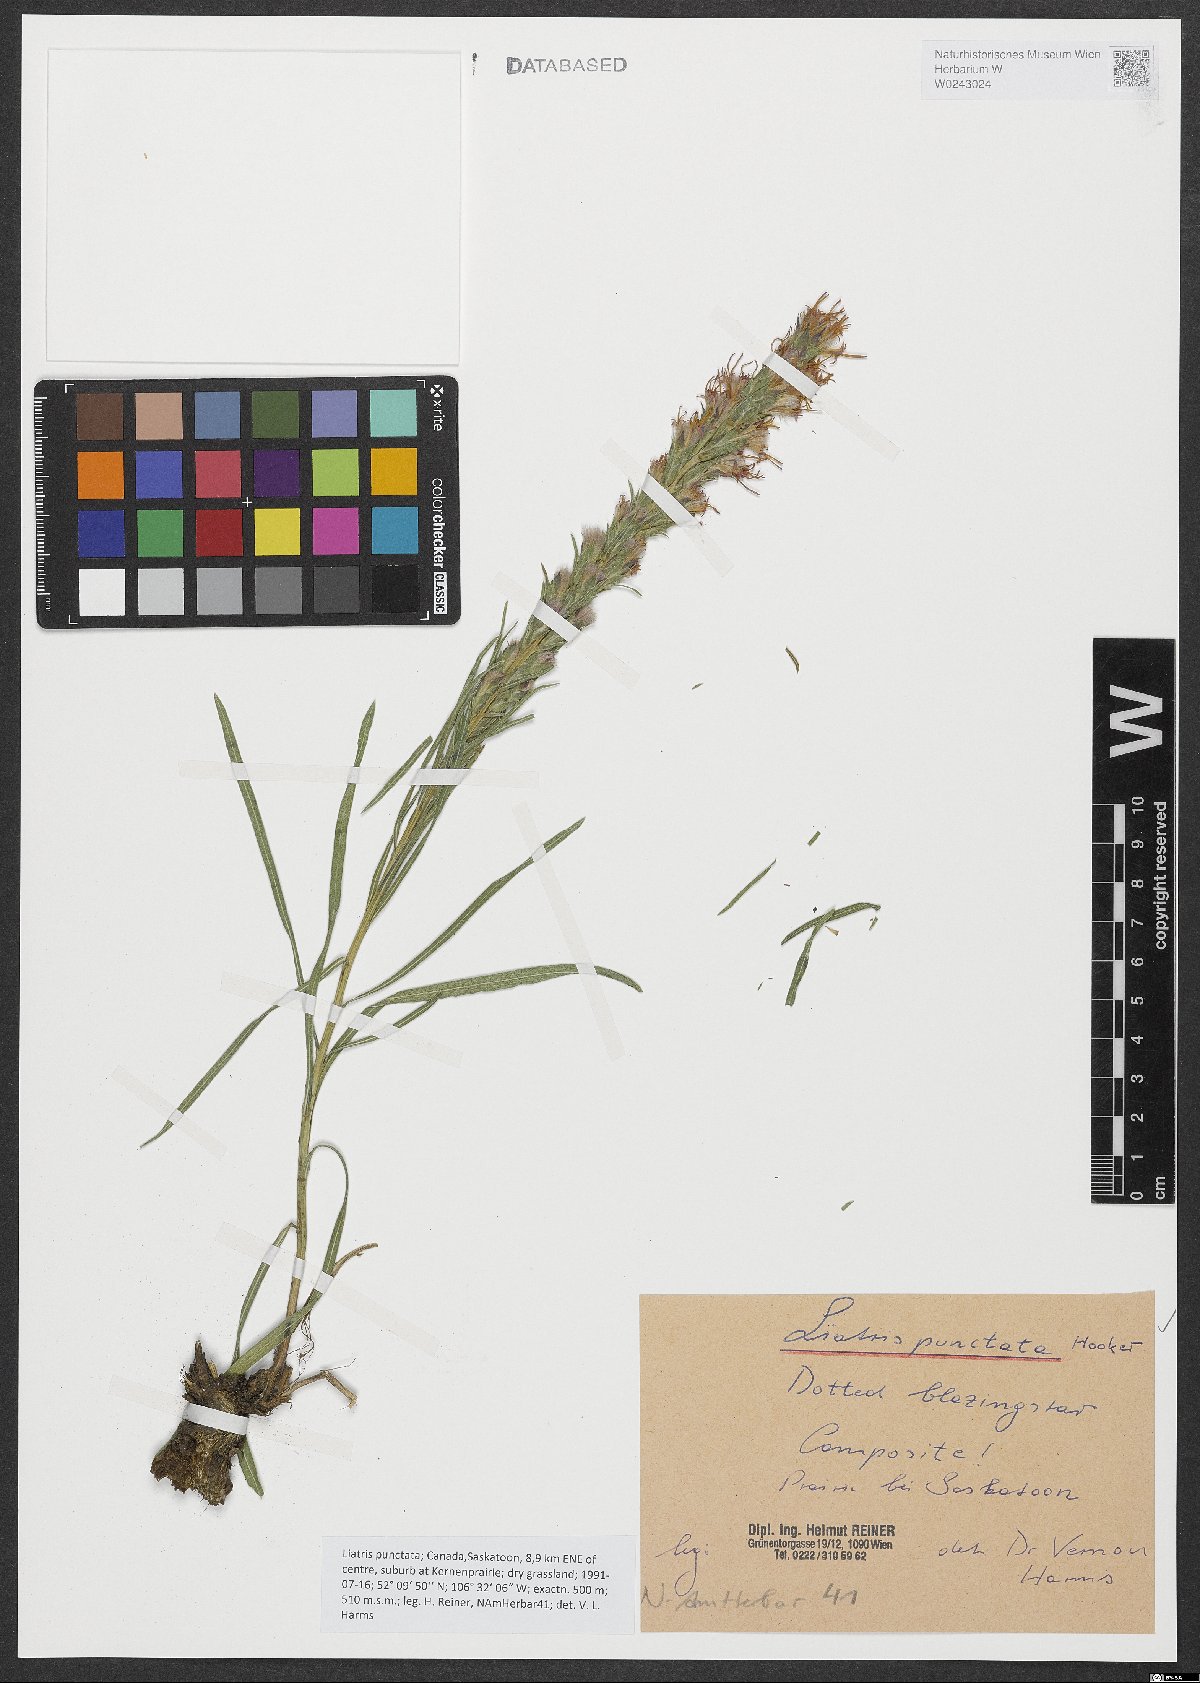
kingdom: Plantae
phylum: Tracheophyta
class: Magnoliopsida
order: Asterales
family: Asteraceae
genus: Liatris
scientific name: Liatris punctata
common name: Dotted gayfeather
